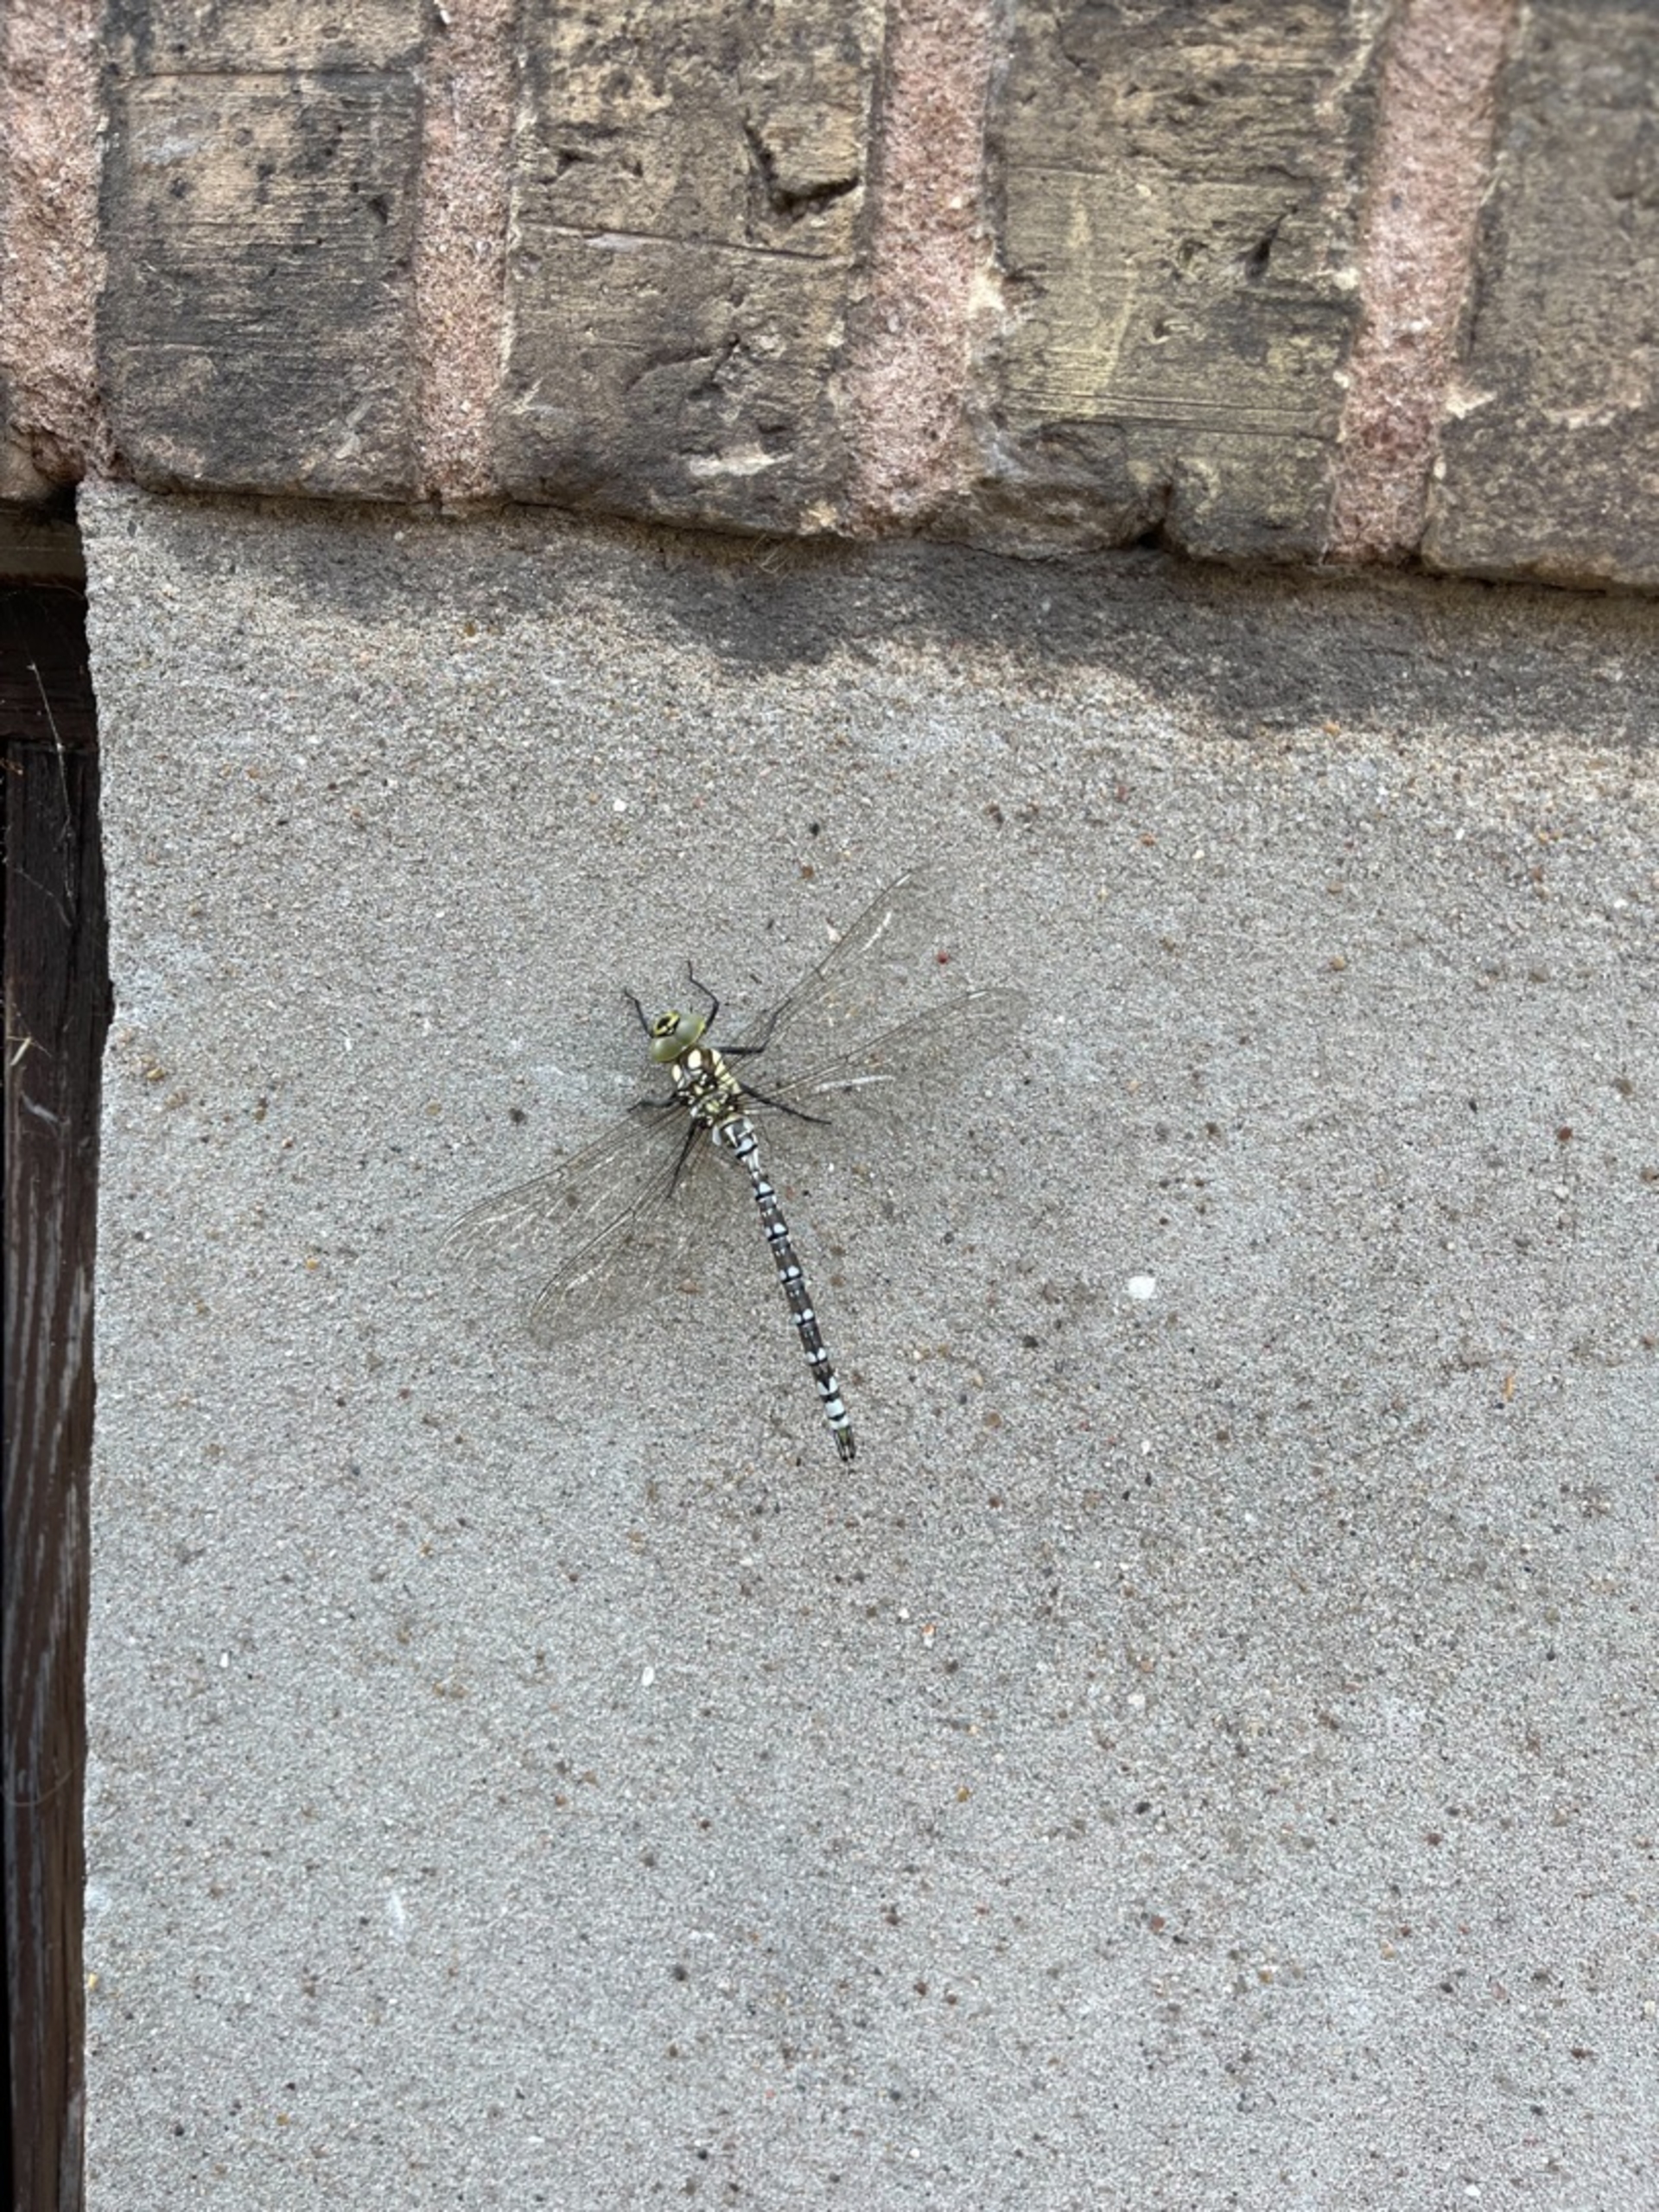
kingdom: Animalia
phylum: Arthropoda
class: Insecta
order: Odonata
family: Aeshnidae
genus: Aeshna
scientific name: Aeshna cyanea
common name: Blå mosaikguldsmed
